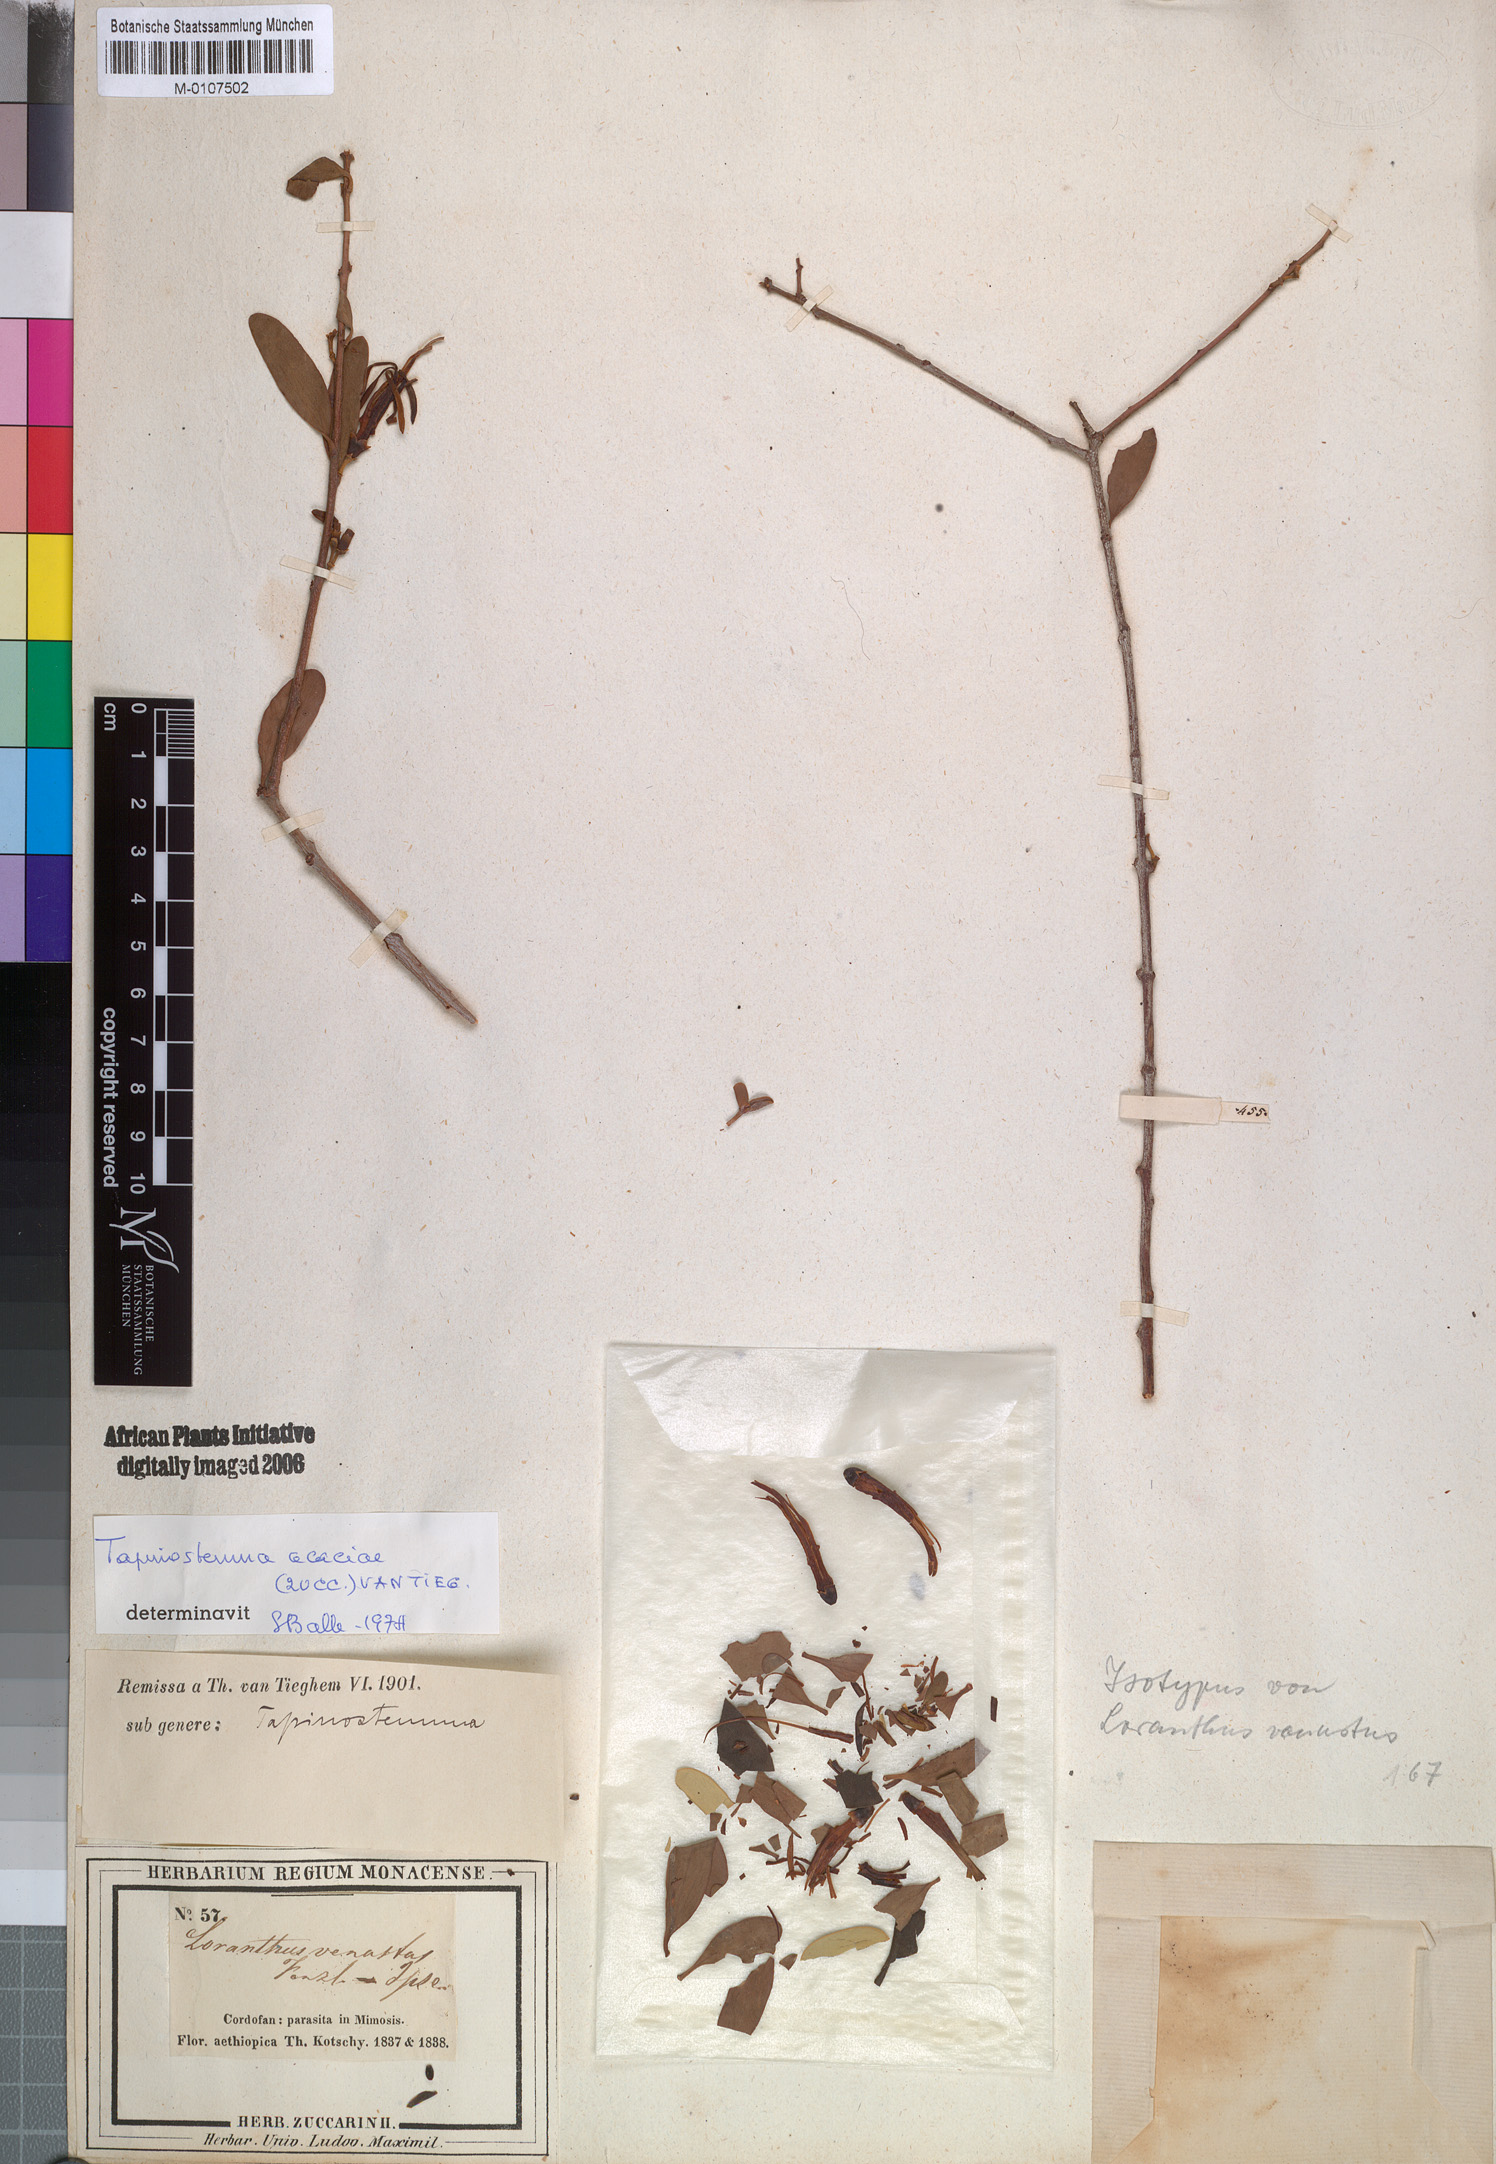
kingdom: Plantae
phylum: Tracheophyta
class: Magnoliopsida
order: Santalales
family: Loranthaceae
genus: Plicosepalus
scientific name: Plicosepalus acaciae
